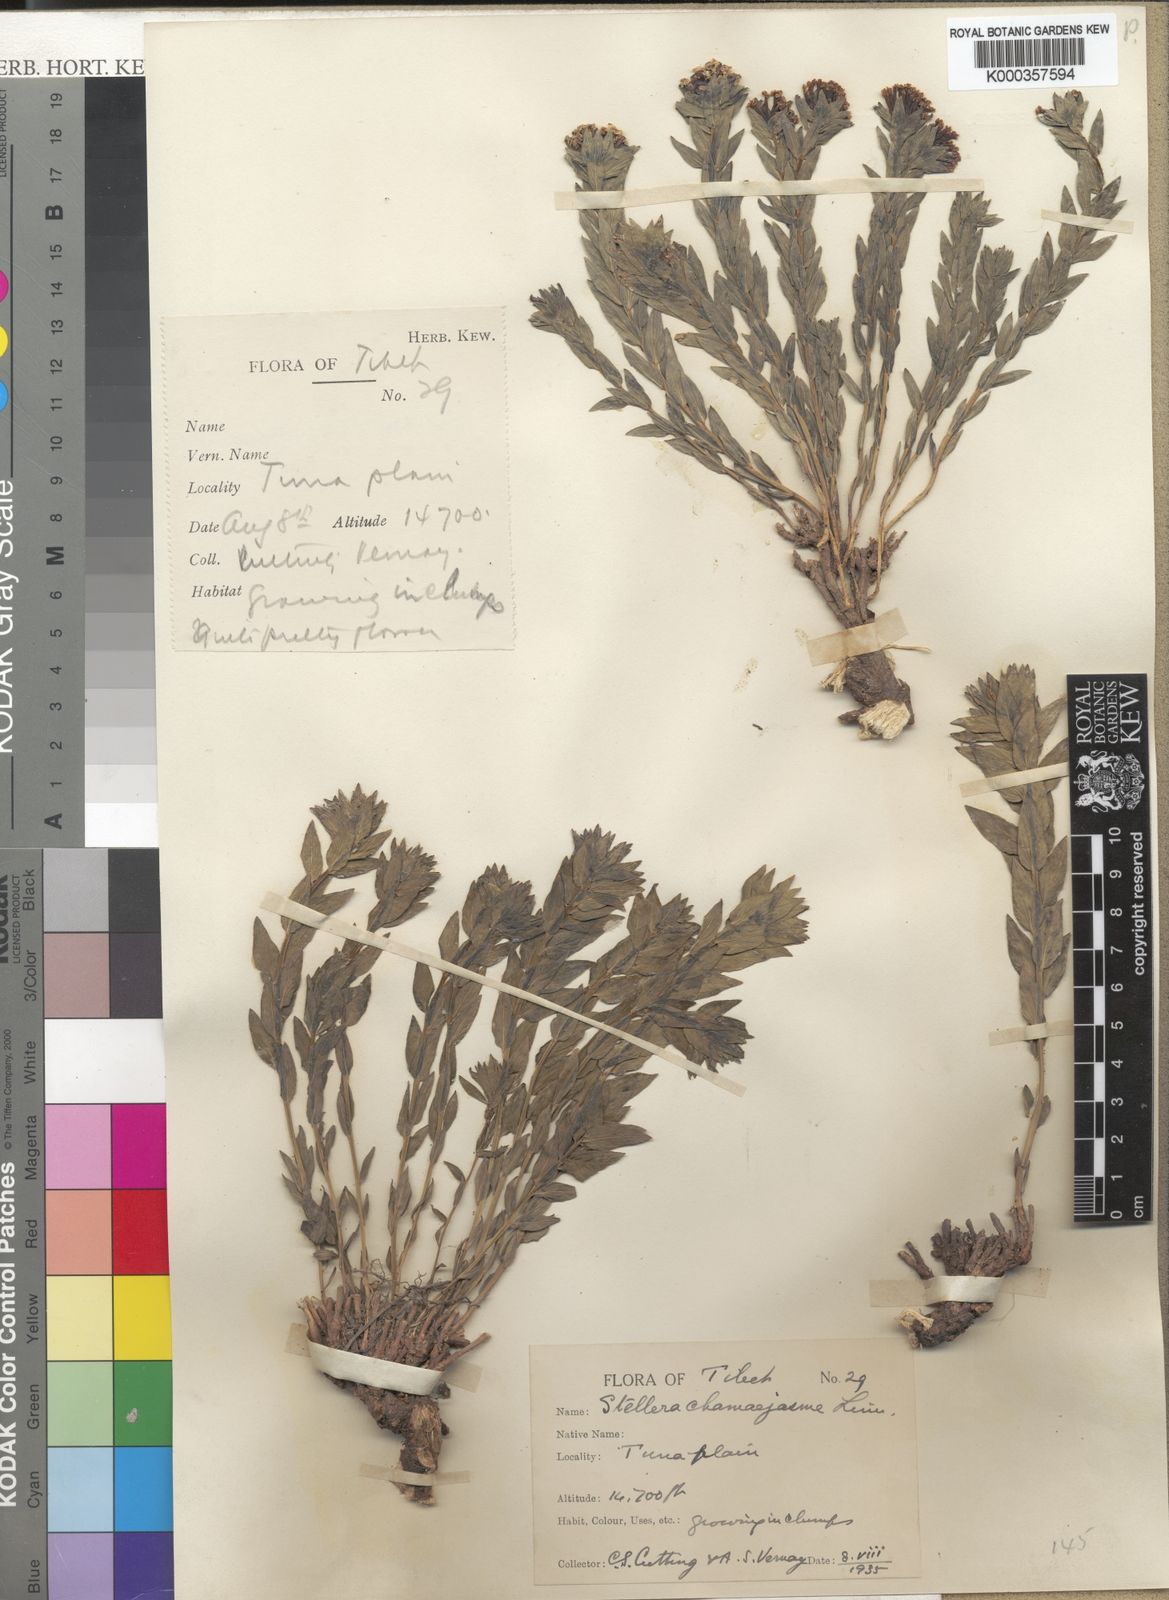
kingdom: Plantae
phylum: Tracheophyta
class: Magnoliopsida
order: Malvales
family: Thymelaeaceae
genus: Stellera
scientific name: Stellera chamaejasme
